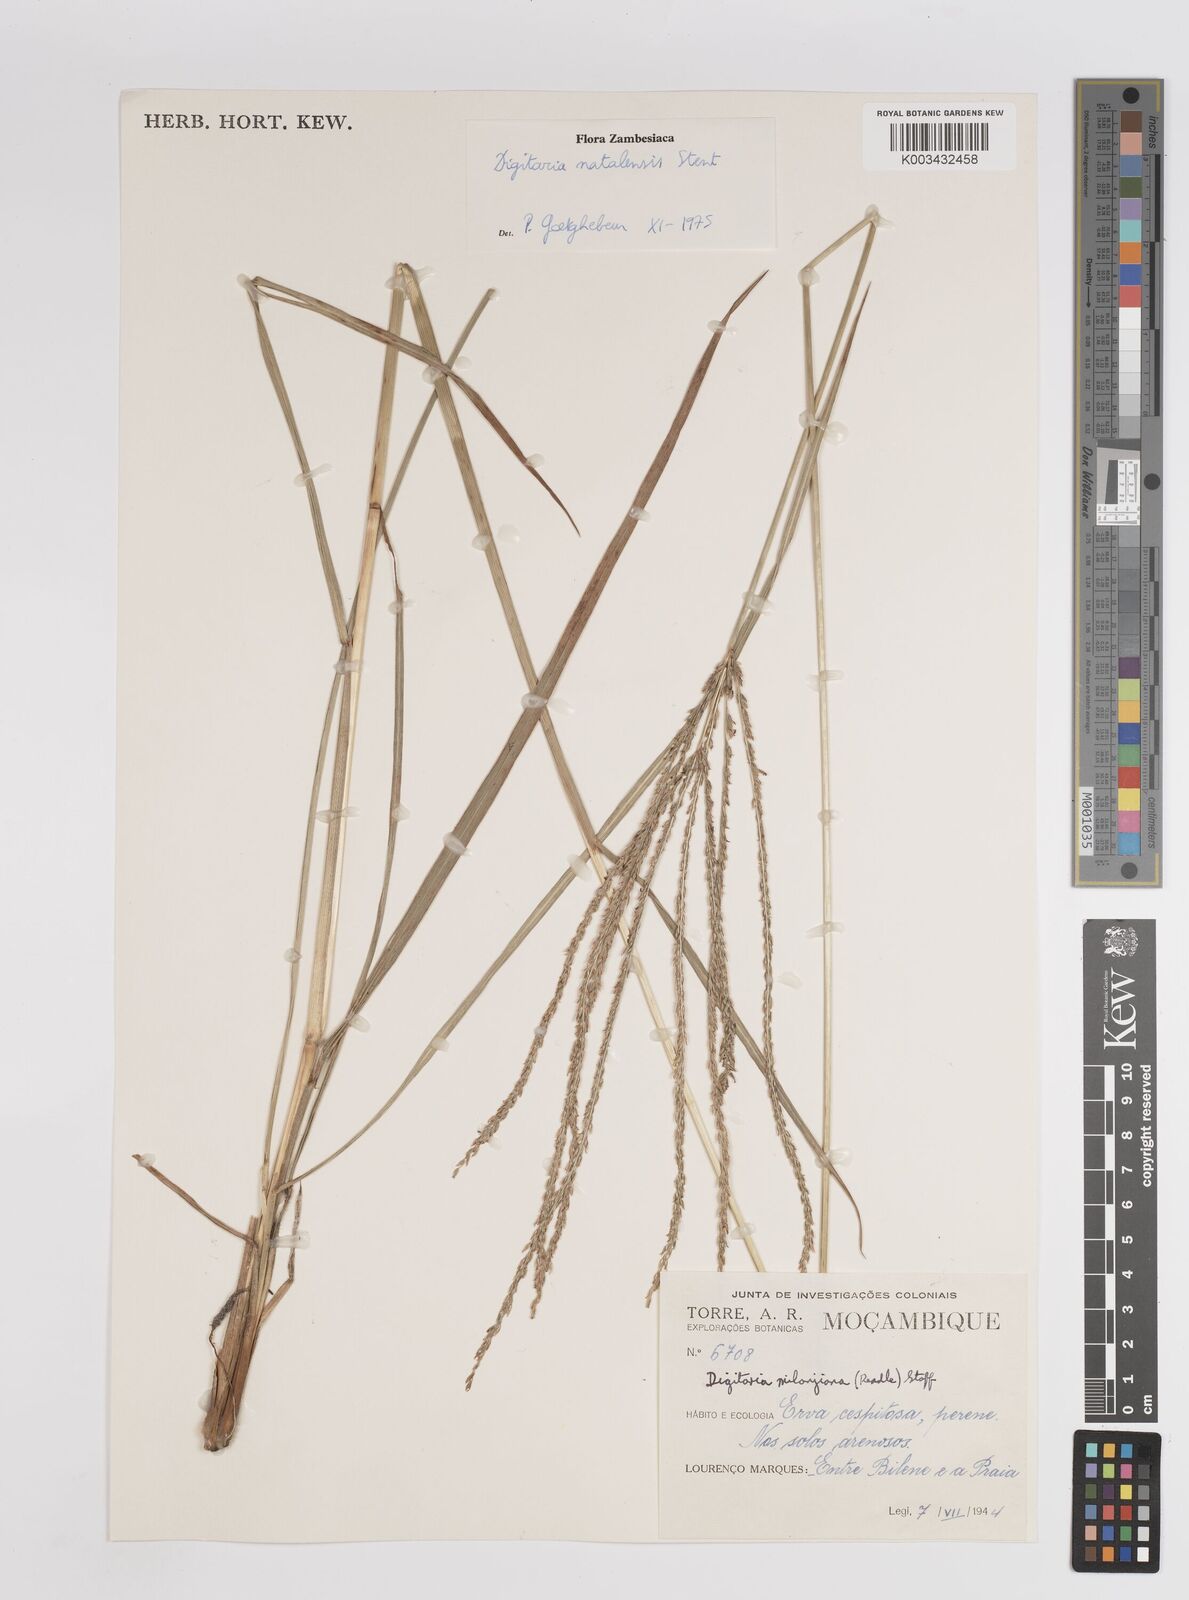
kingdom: Plantae
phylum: Tracheophyta
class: Liliopsida
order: Poales
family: Poaceae
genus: Digitaria
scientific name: Digitaria natalensis
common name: Coast finger grass
